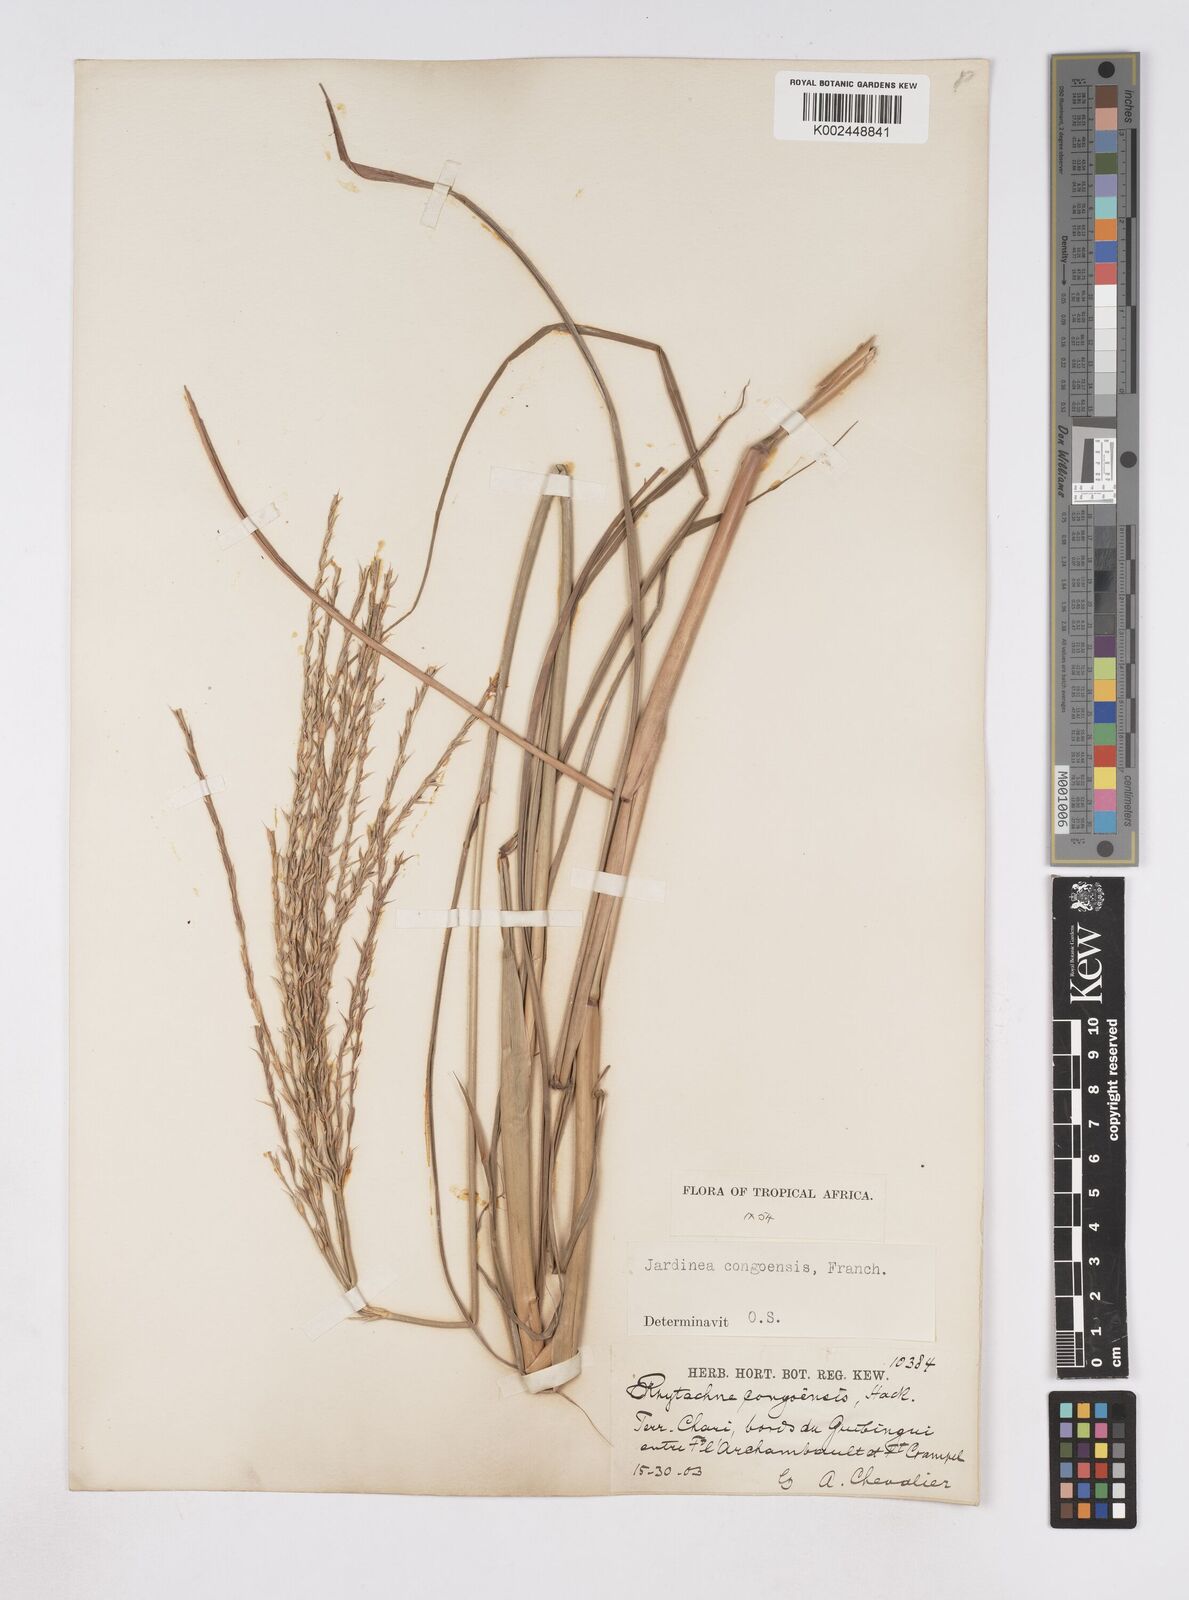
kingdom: Plantae
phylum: Tracheophyta
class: Liliopsida
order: Poales
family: Poaceae
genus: Phacelurus
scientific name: Phacelurus gabonensis
